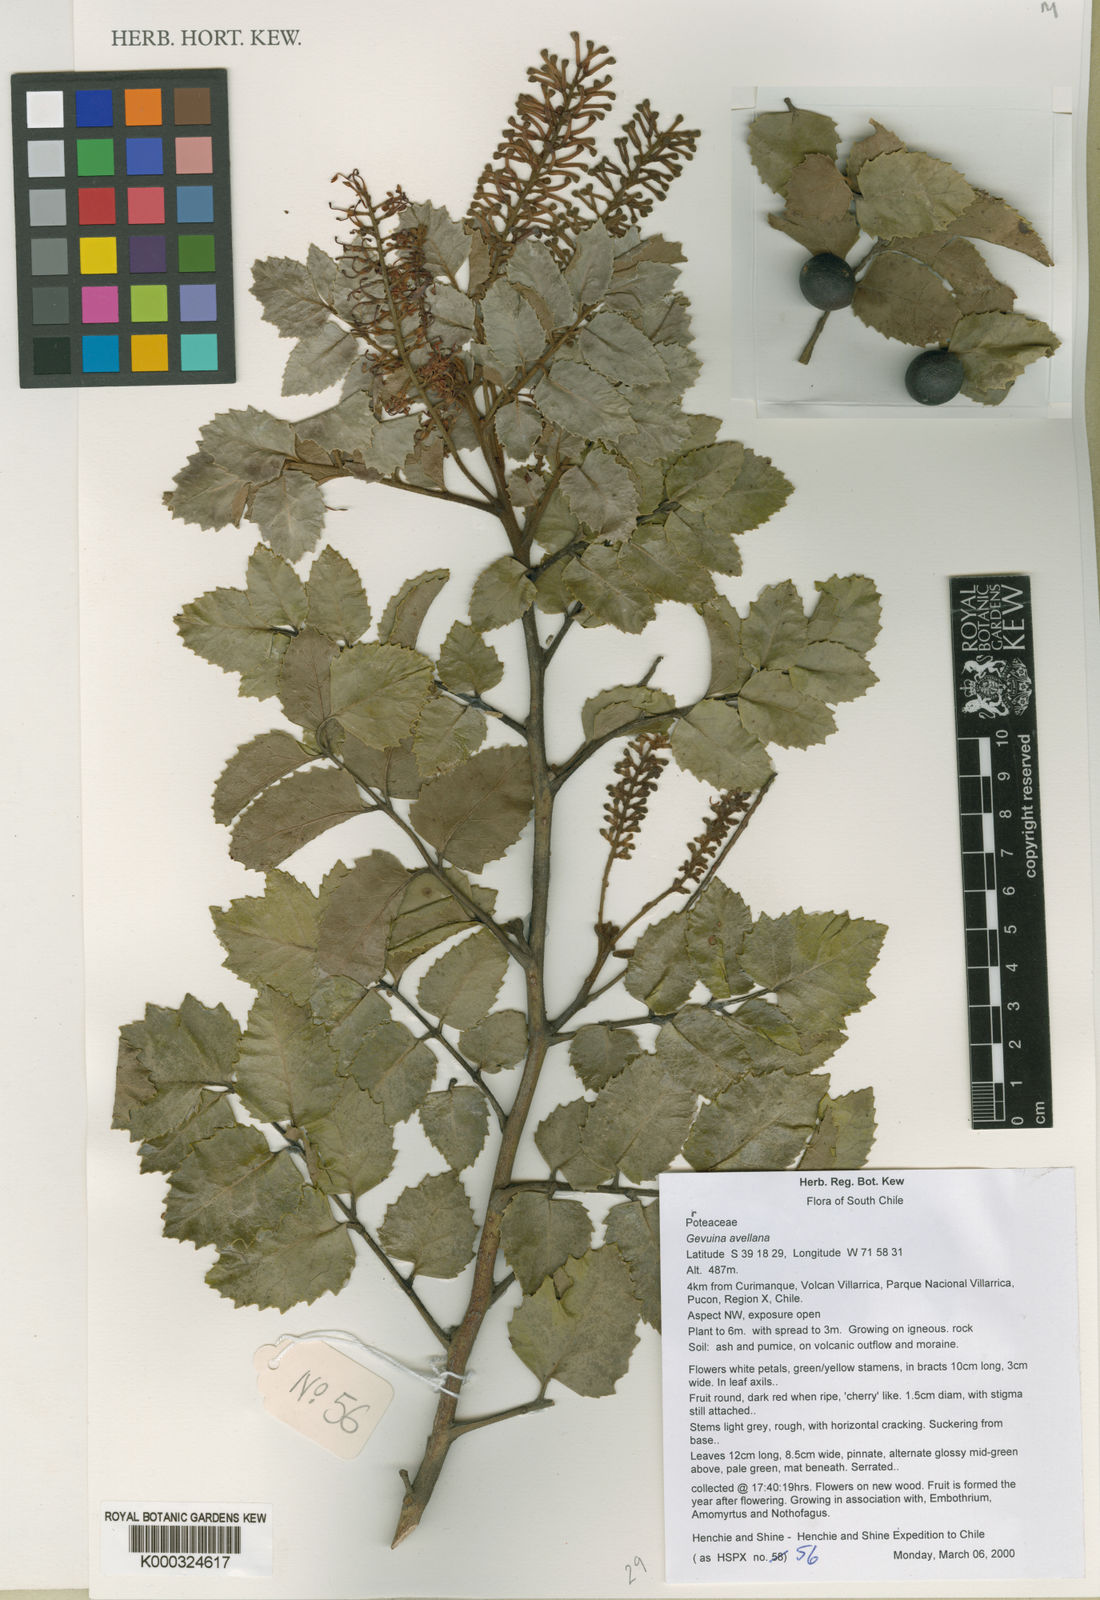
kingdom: Plantae
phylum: Tracheophyta
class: Magnoliopsida
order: Proteales
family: Proteaceae
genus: Gevuina
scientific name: Gevuina avellana
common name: Chilean hazel
